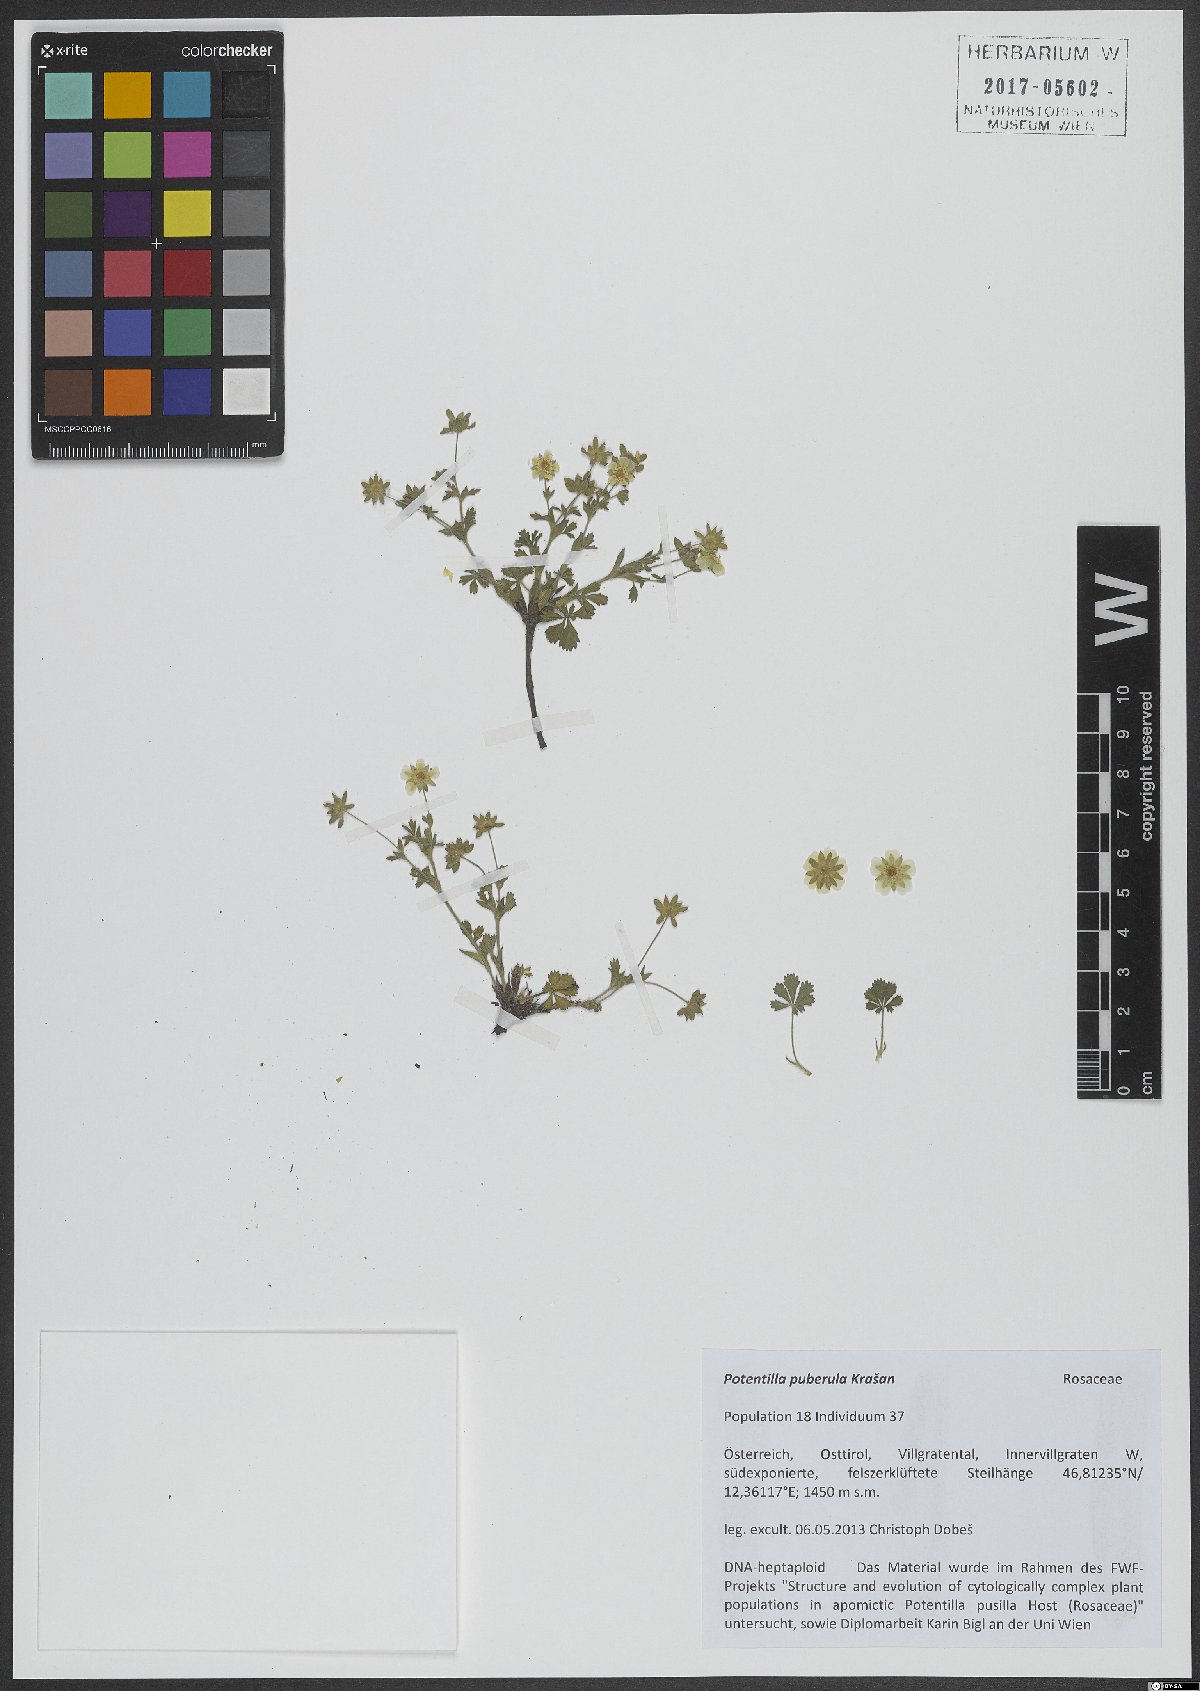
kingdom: Plantae
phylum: Tracheophyta
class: Magnoliopsida
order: Rosales
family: Rosaceae
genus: Potentilla
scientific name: Potentilla pusilla
